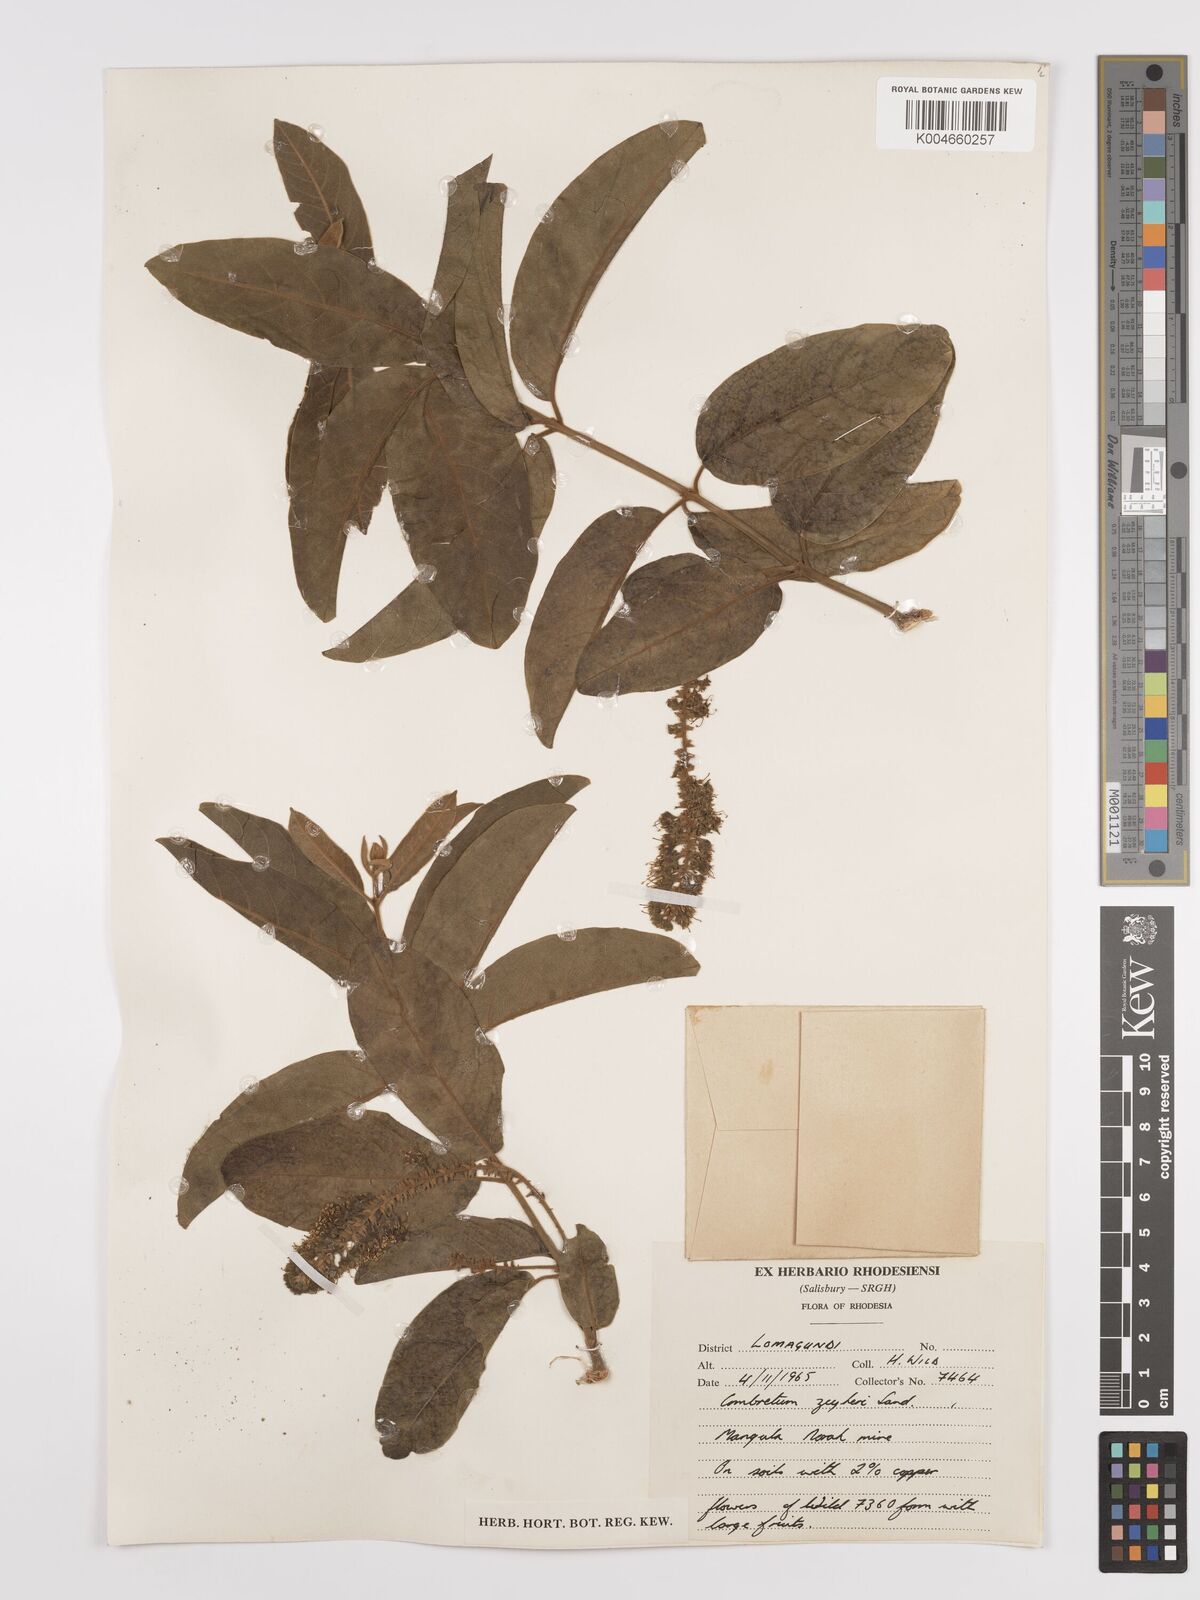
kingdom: Plantae
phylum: Tracheophyta
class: Magnoliopsida
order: Myrtales
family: Combretaceae
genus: Combretum
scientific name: Combretum zeyheri
